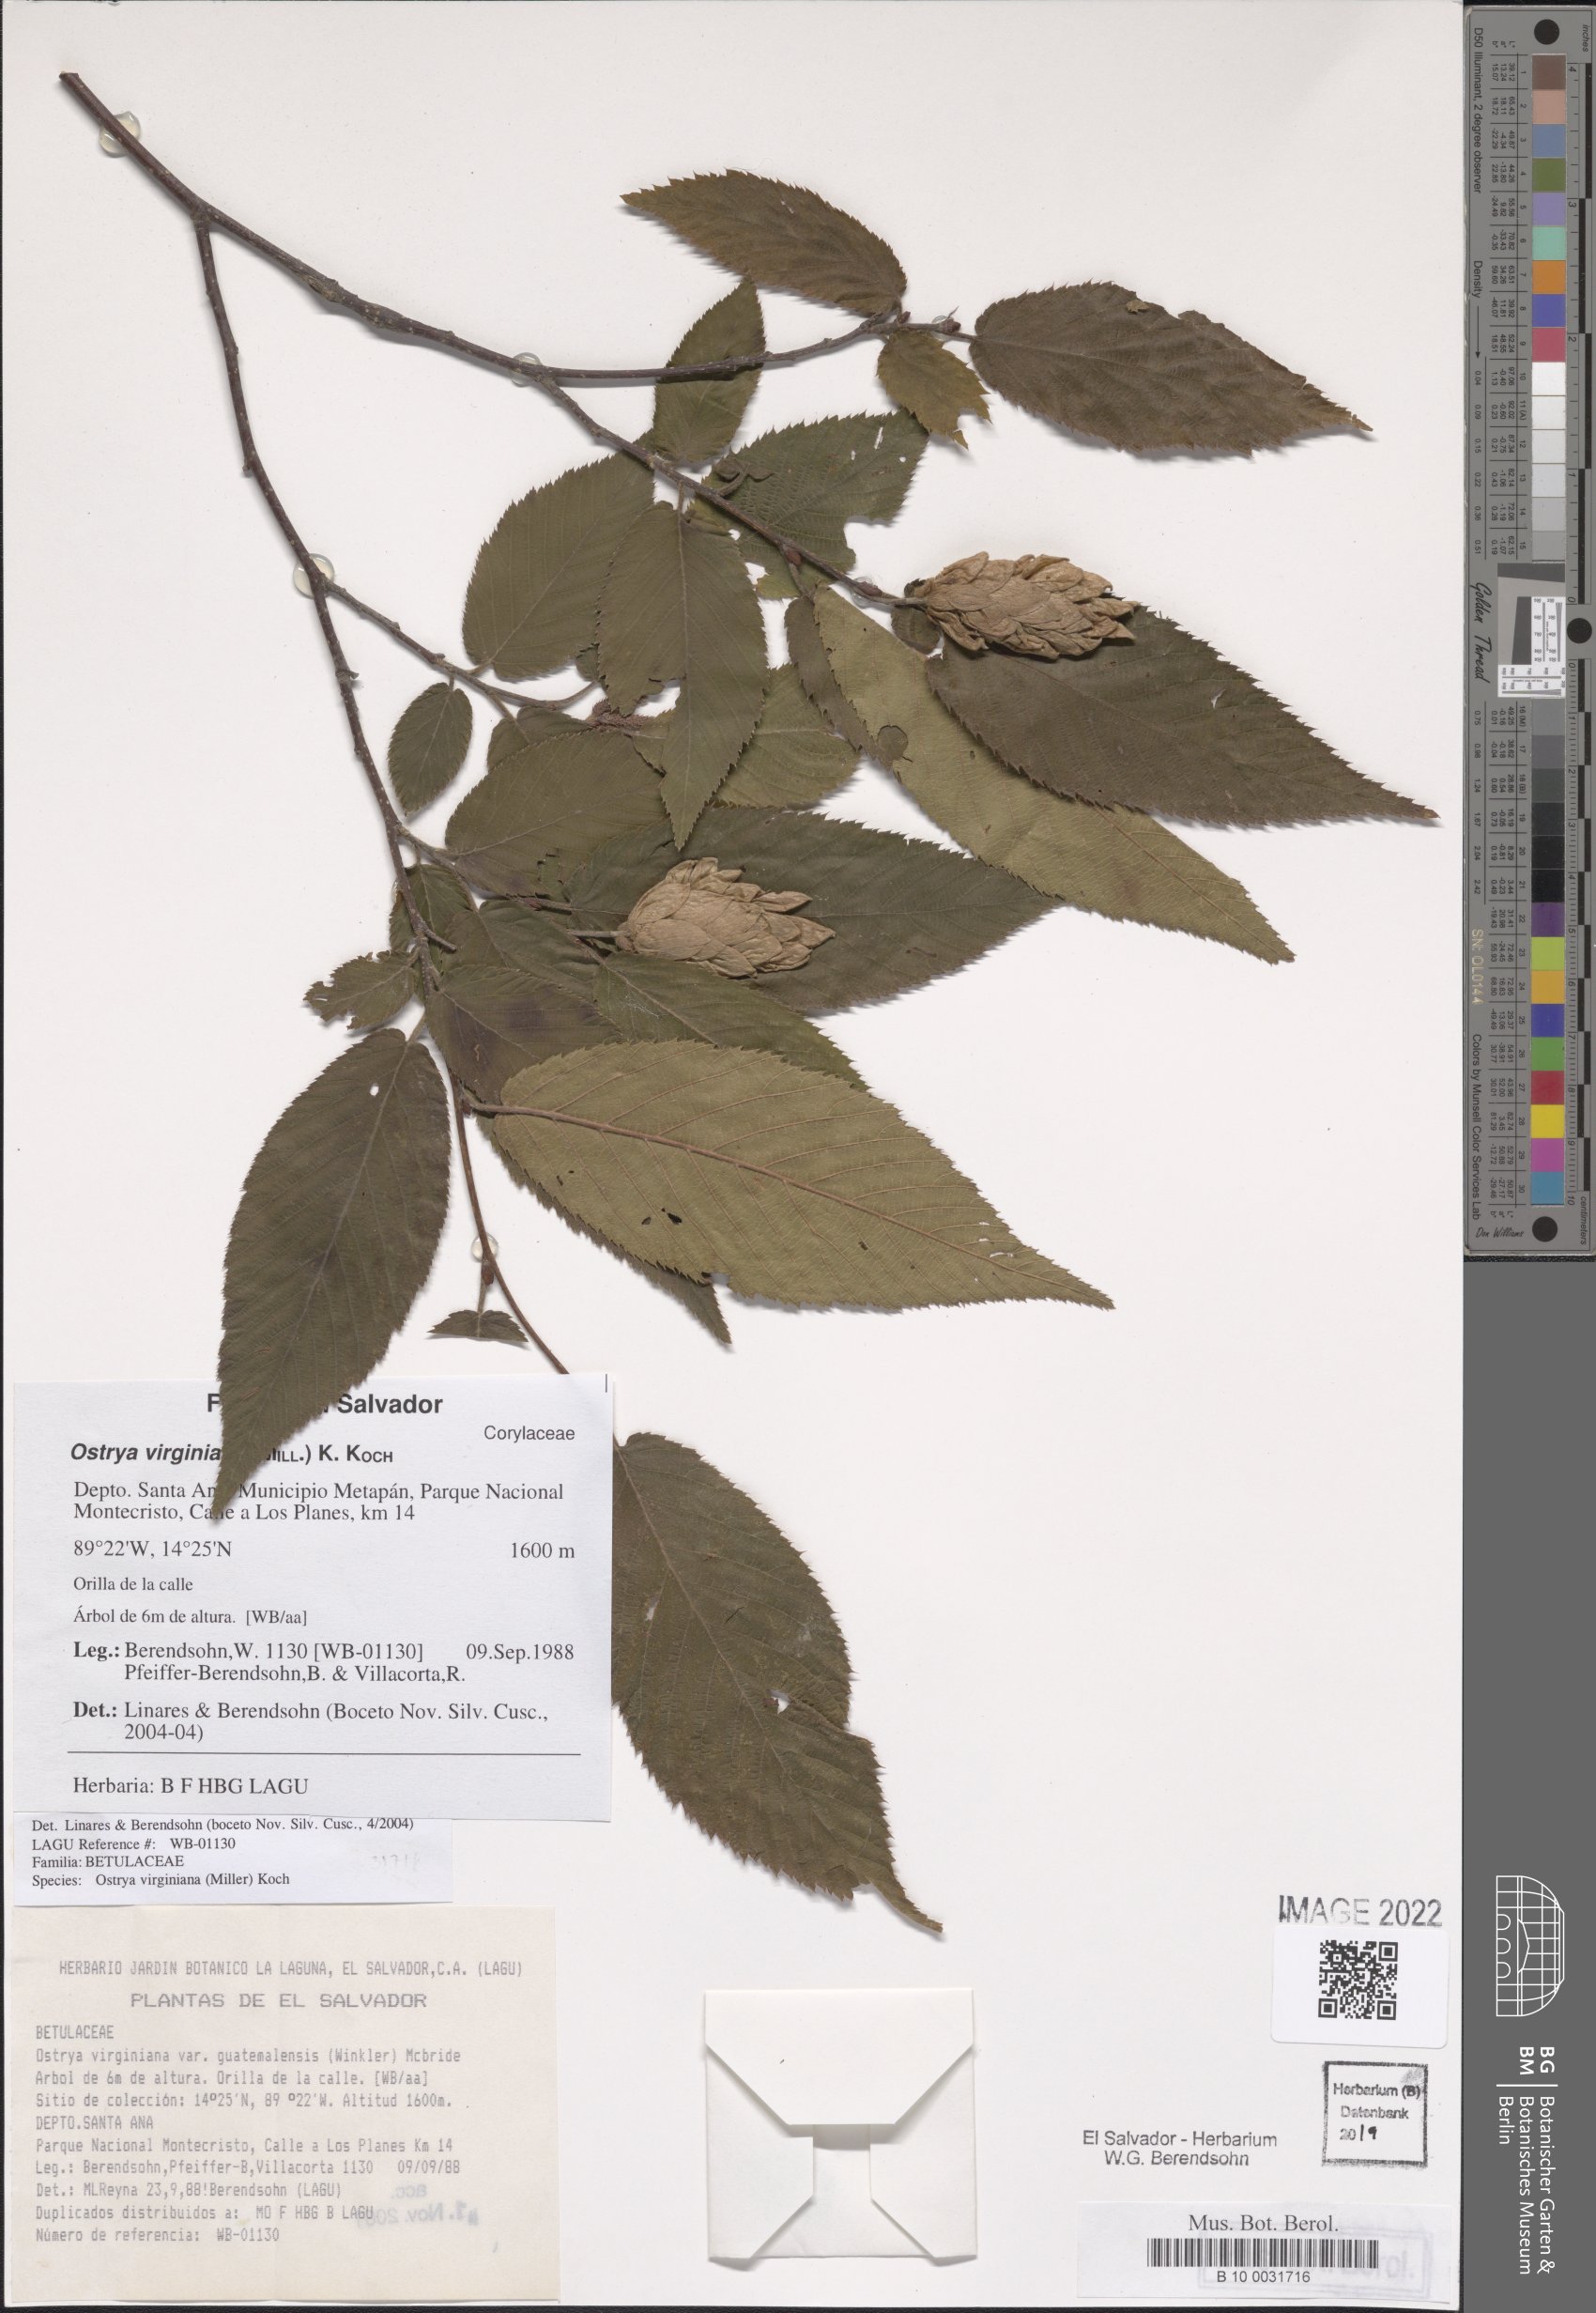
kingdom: Plantae
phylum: Tracheophyta
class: Magnoliopsida
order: Fagales
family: Betulaceae
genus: Ostrya
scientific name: Ostrya virginiana
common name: Ironwood
